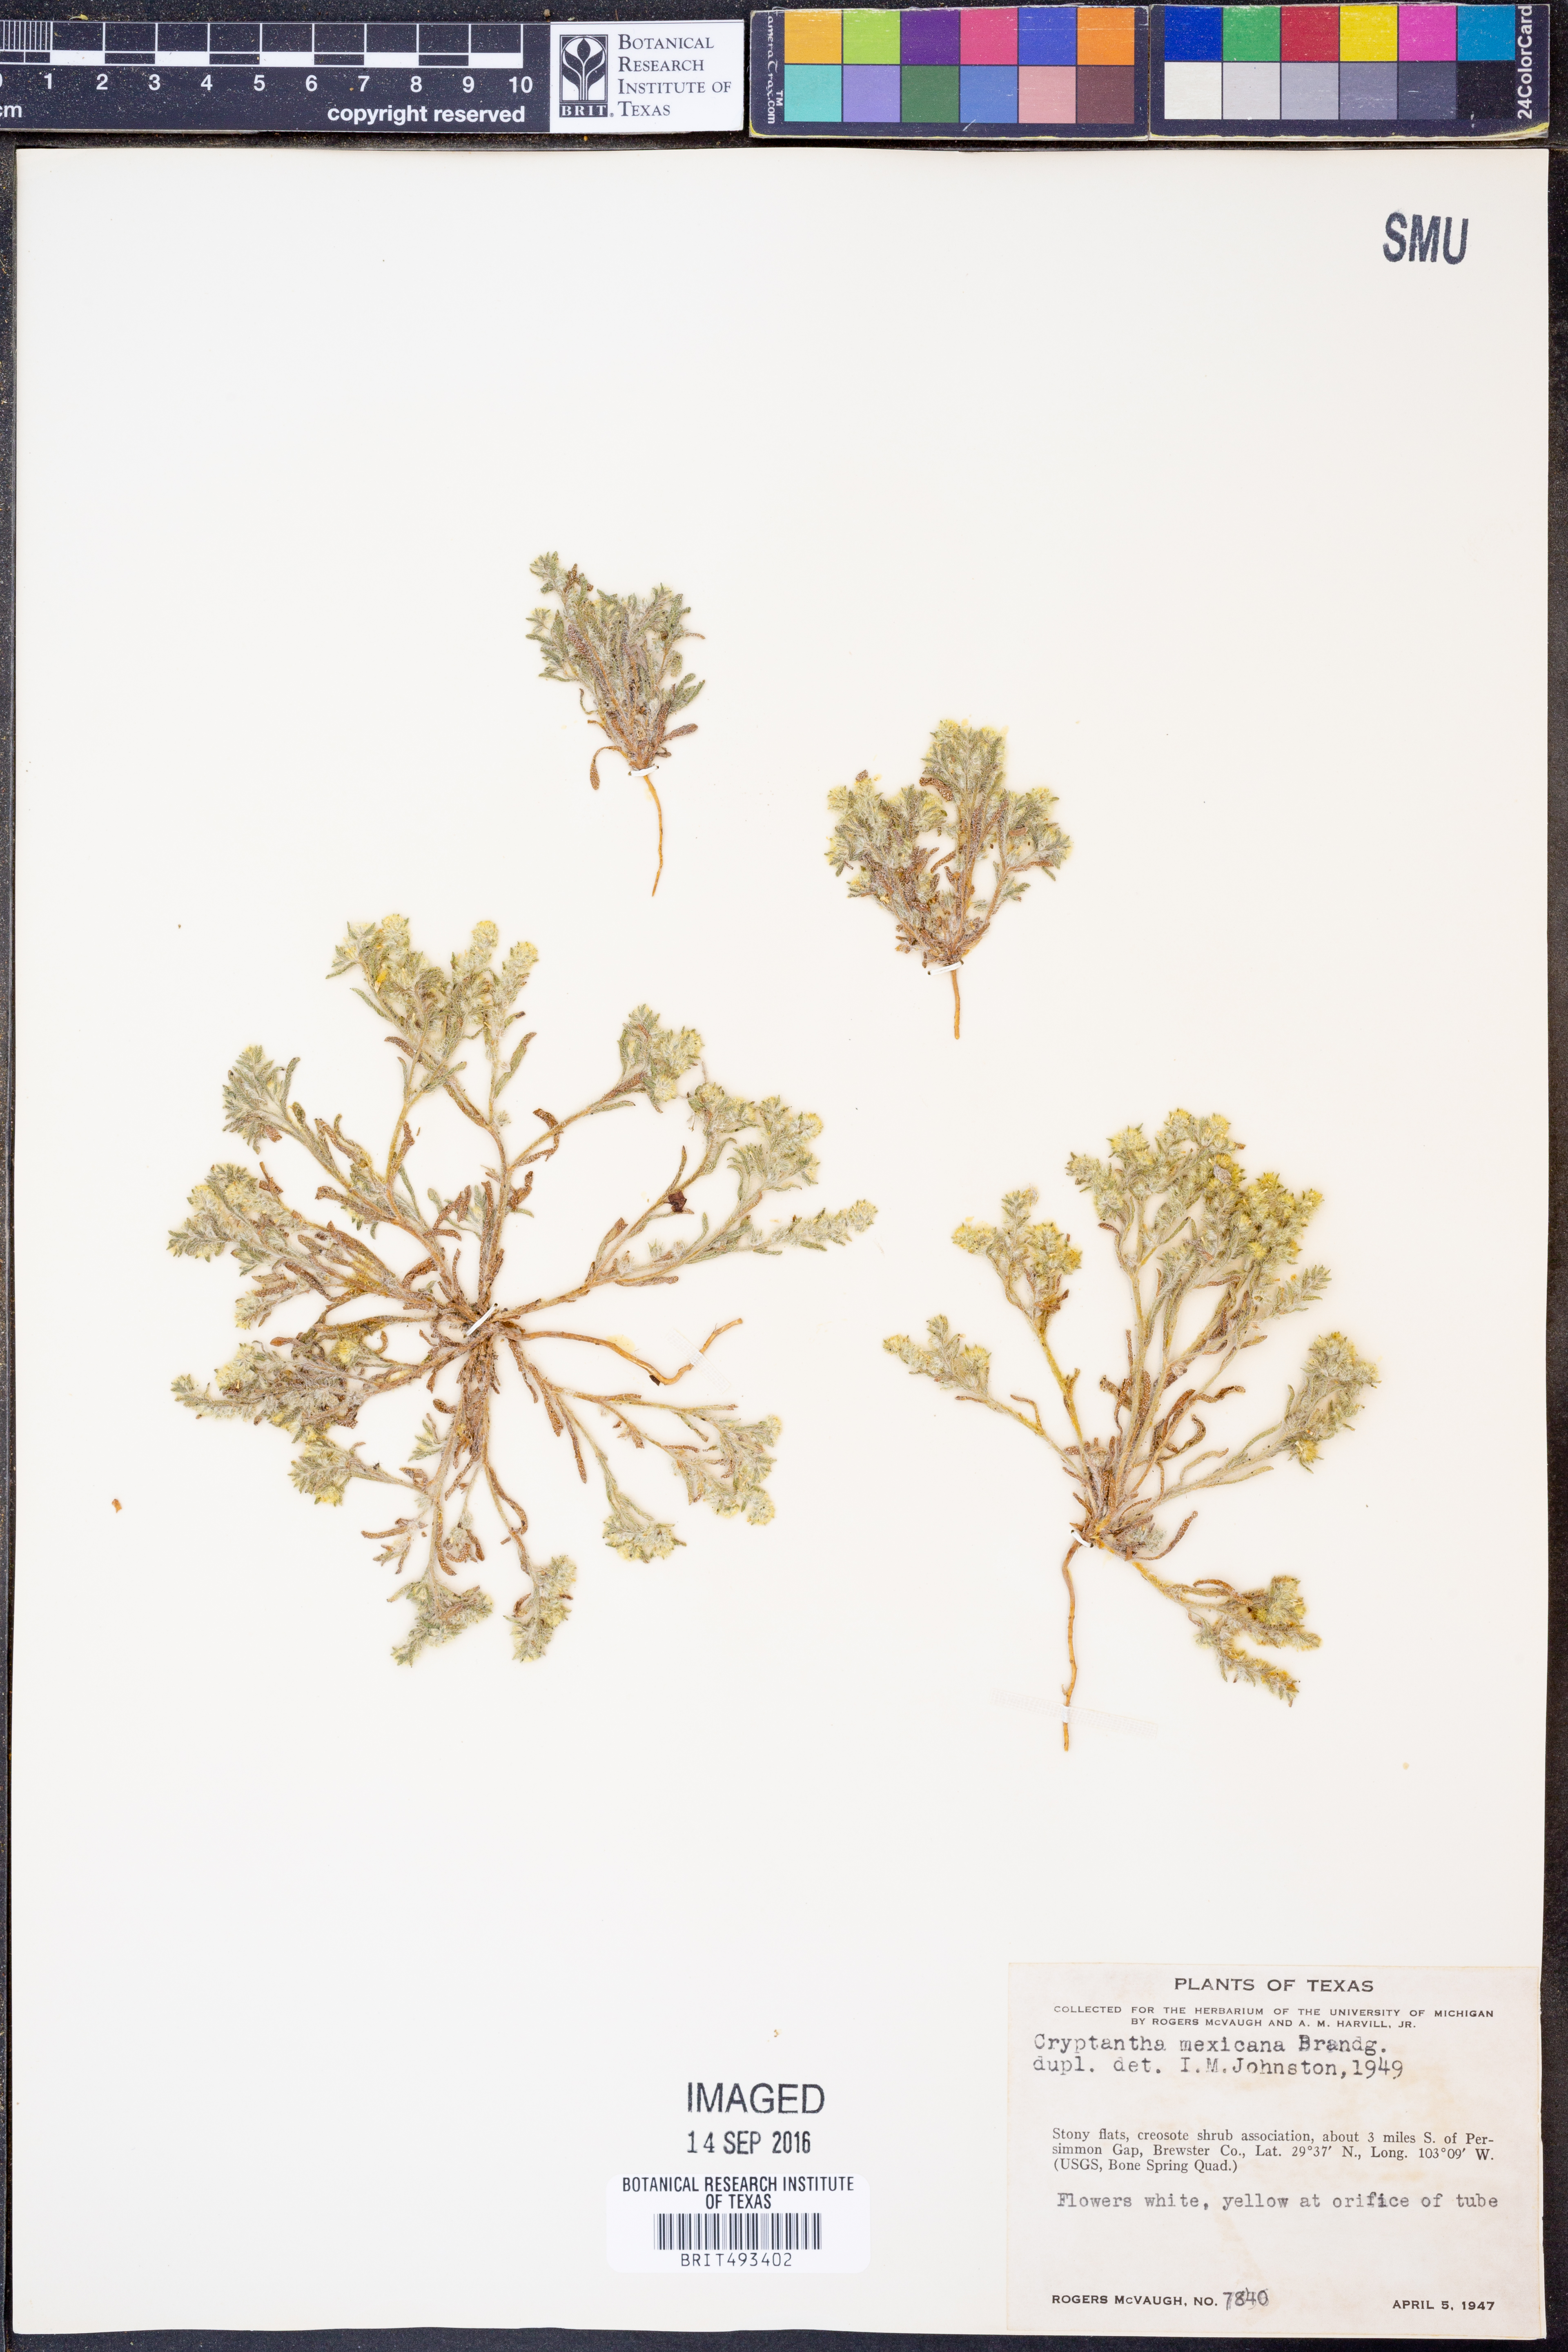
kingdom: Plantae
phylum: Tracheophyta
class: Magnoliopsida
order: Boraginales
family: Boraginaceae
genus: Johnstonella
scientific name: Johnstonella mexicana
